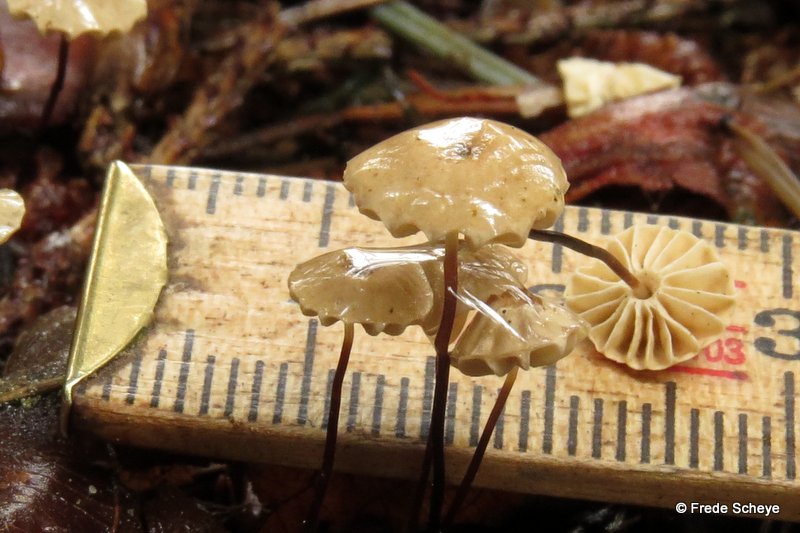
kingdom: Fungi
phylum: Basidiomycota
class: Agaricomycetes
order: Agaricales
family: Marasmiaceae
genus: Marasmius
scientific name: Marasmius rotula
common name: hjul-bruskhat
